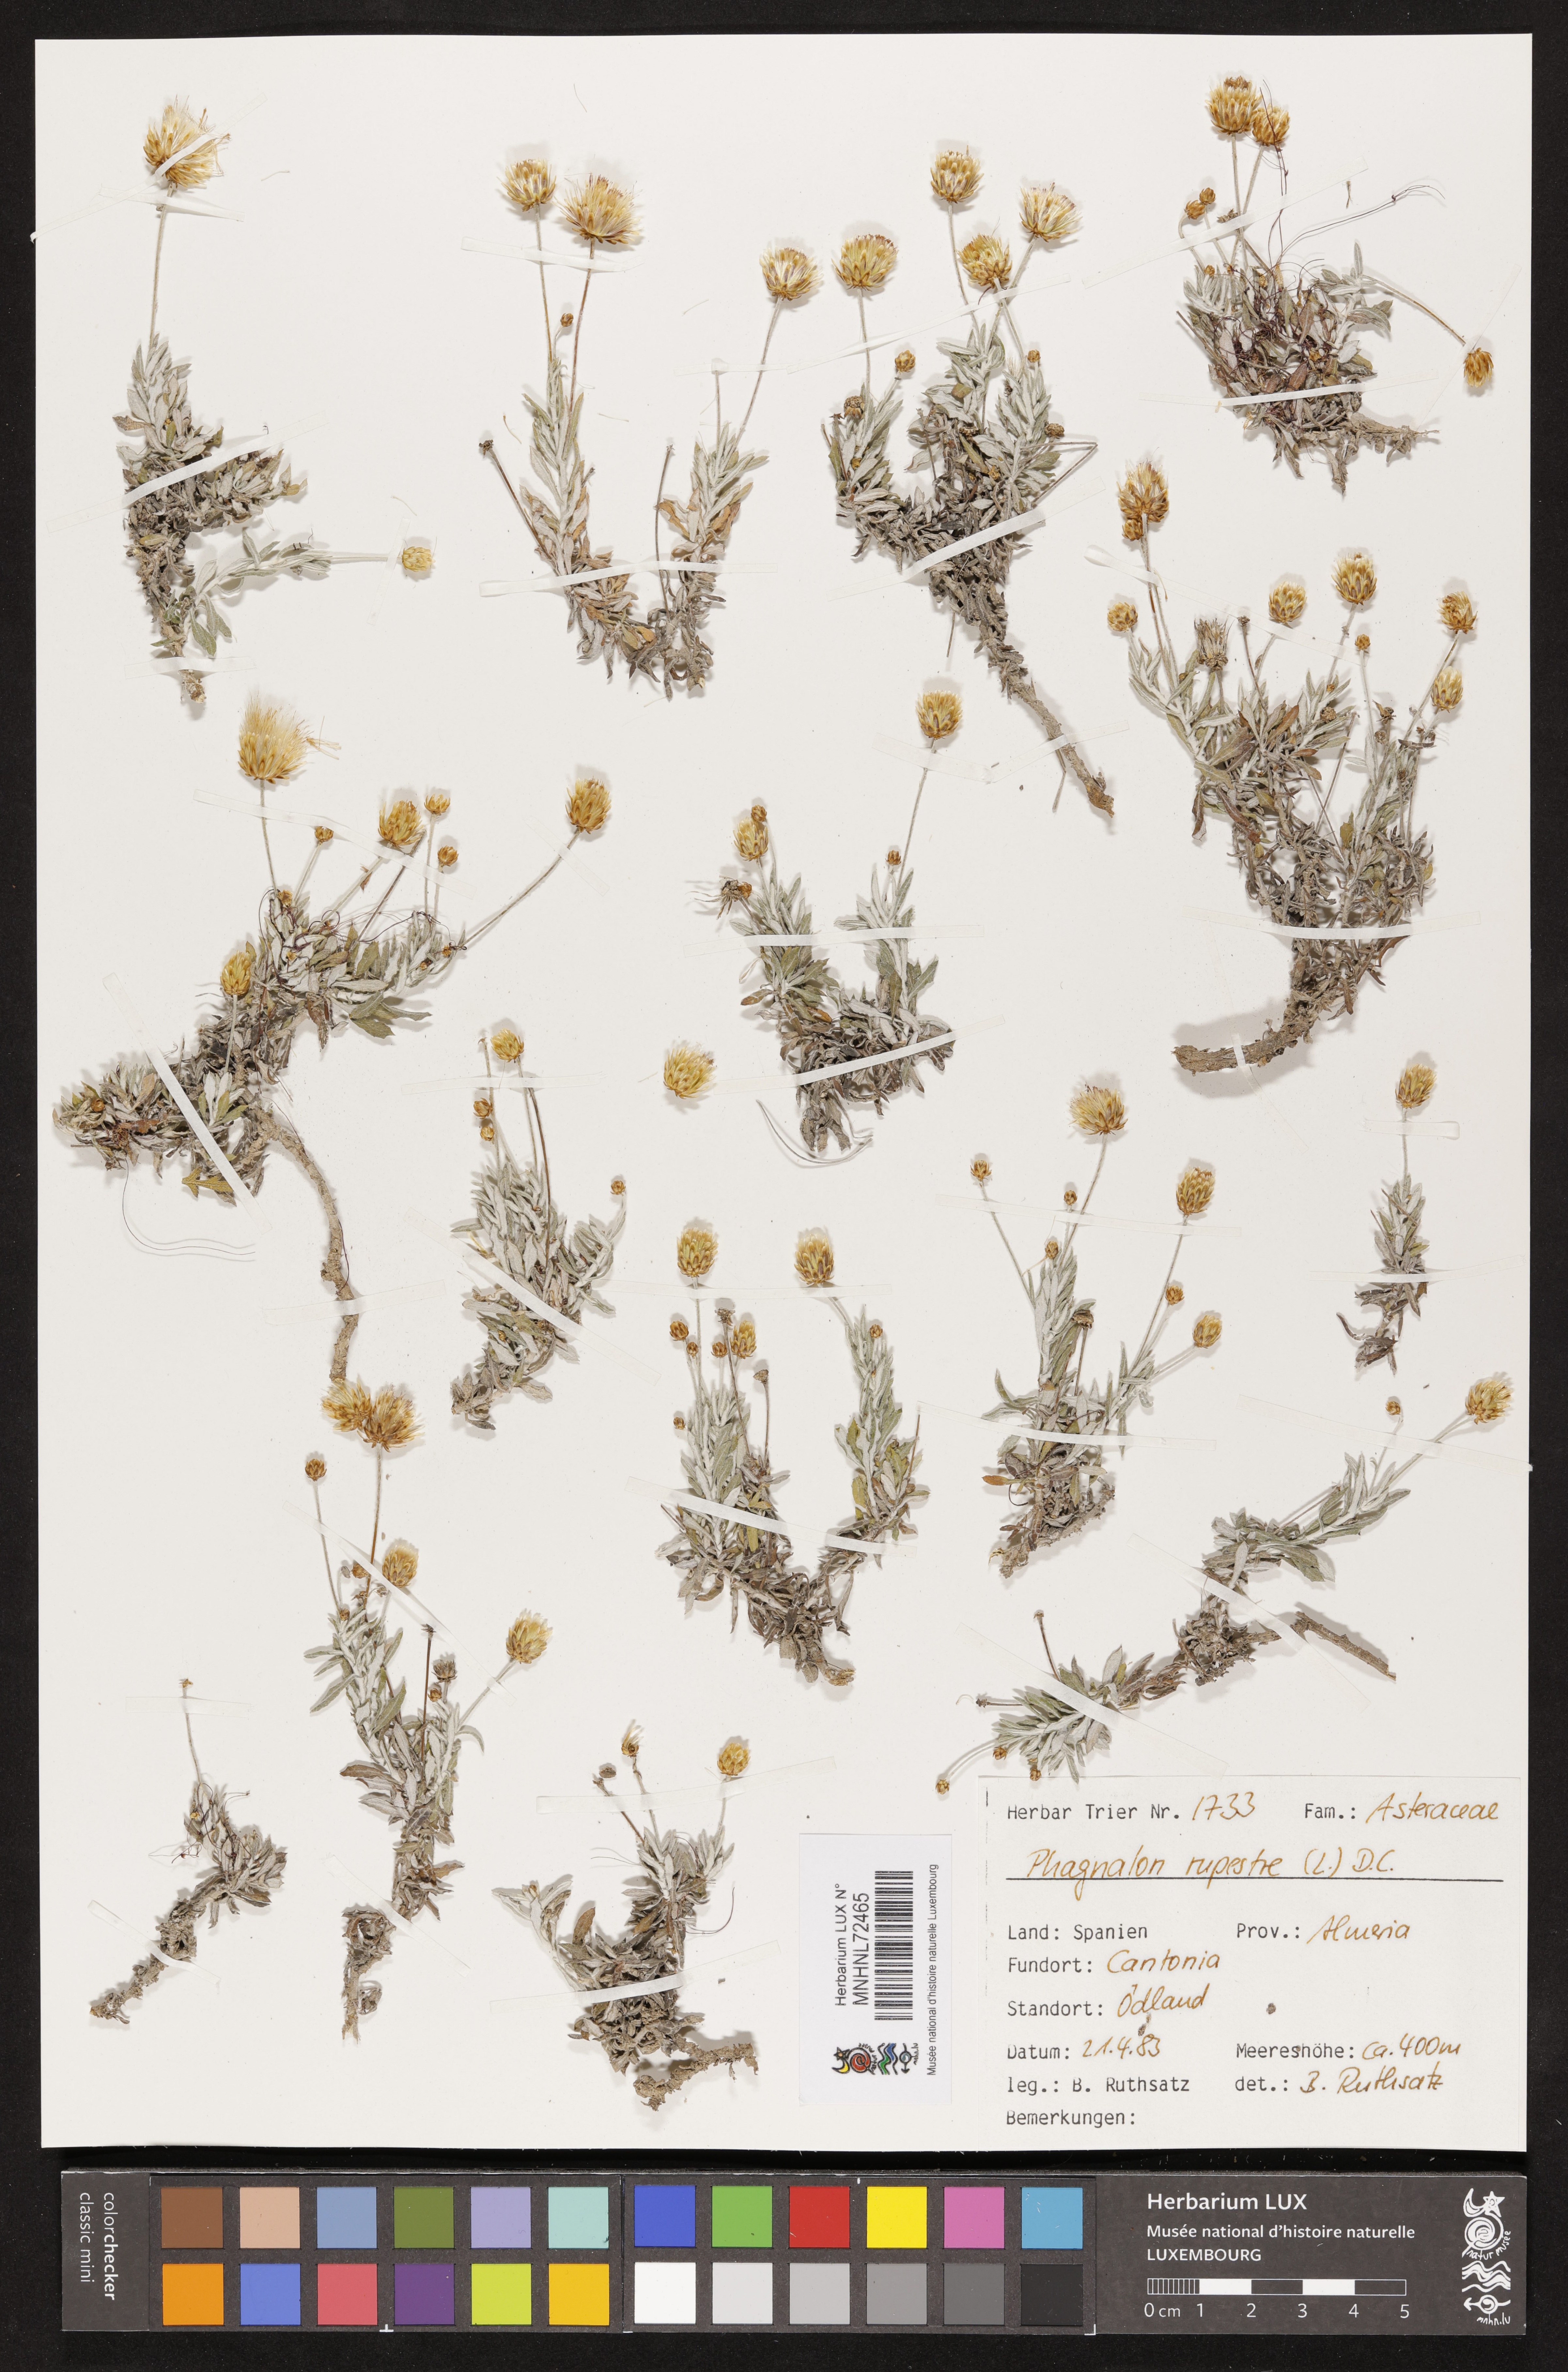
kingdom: Plantae
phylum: Tracheophyta
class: Magnoliopsida
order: Asterales
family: Asteraceae
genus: Phagnalon
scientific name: Phagnalon rupestre
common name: Rock phagnalon
